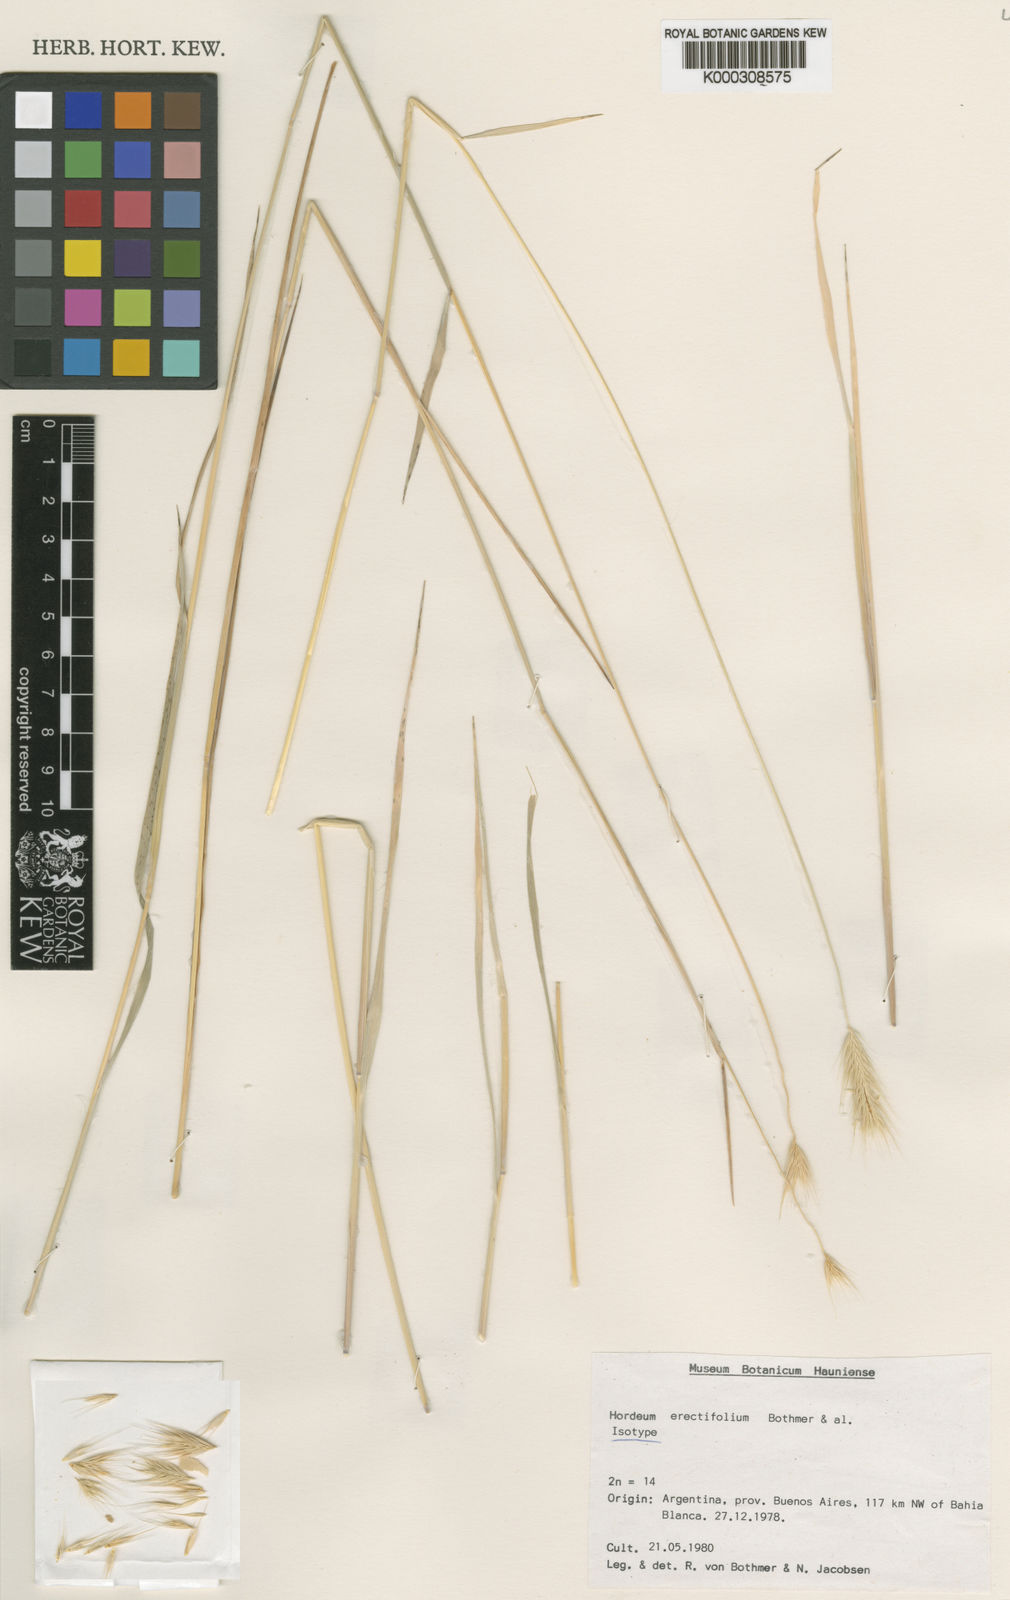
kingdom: Plantae
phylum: Tracheophyta
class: Liliopsida
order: Poales
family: Poaceae
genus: Hordeum
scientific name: Hordeum
